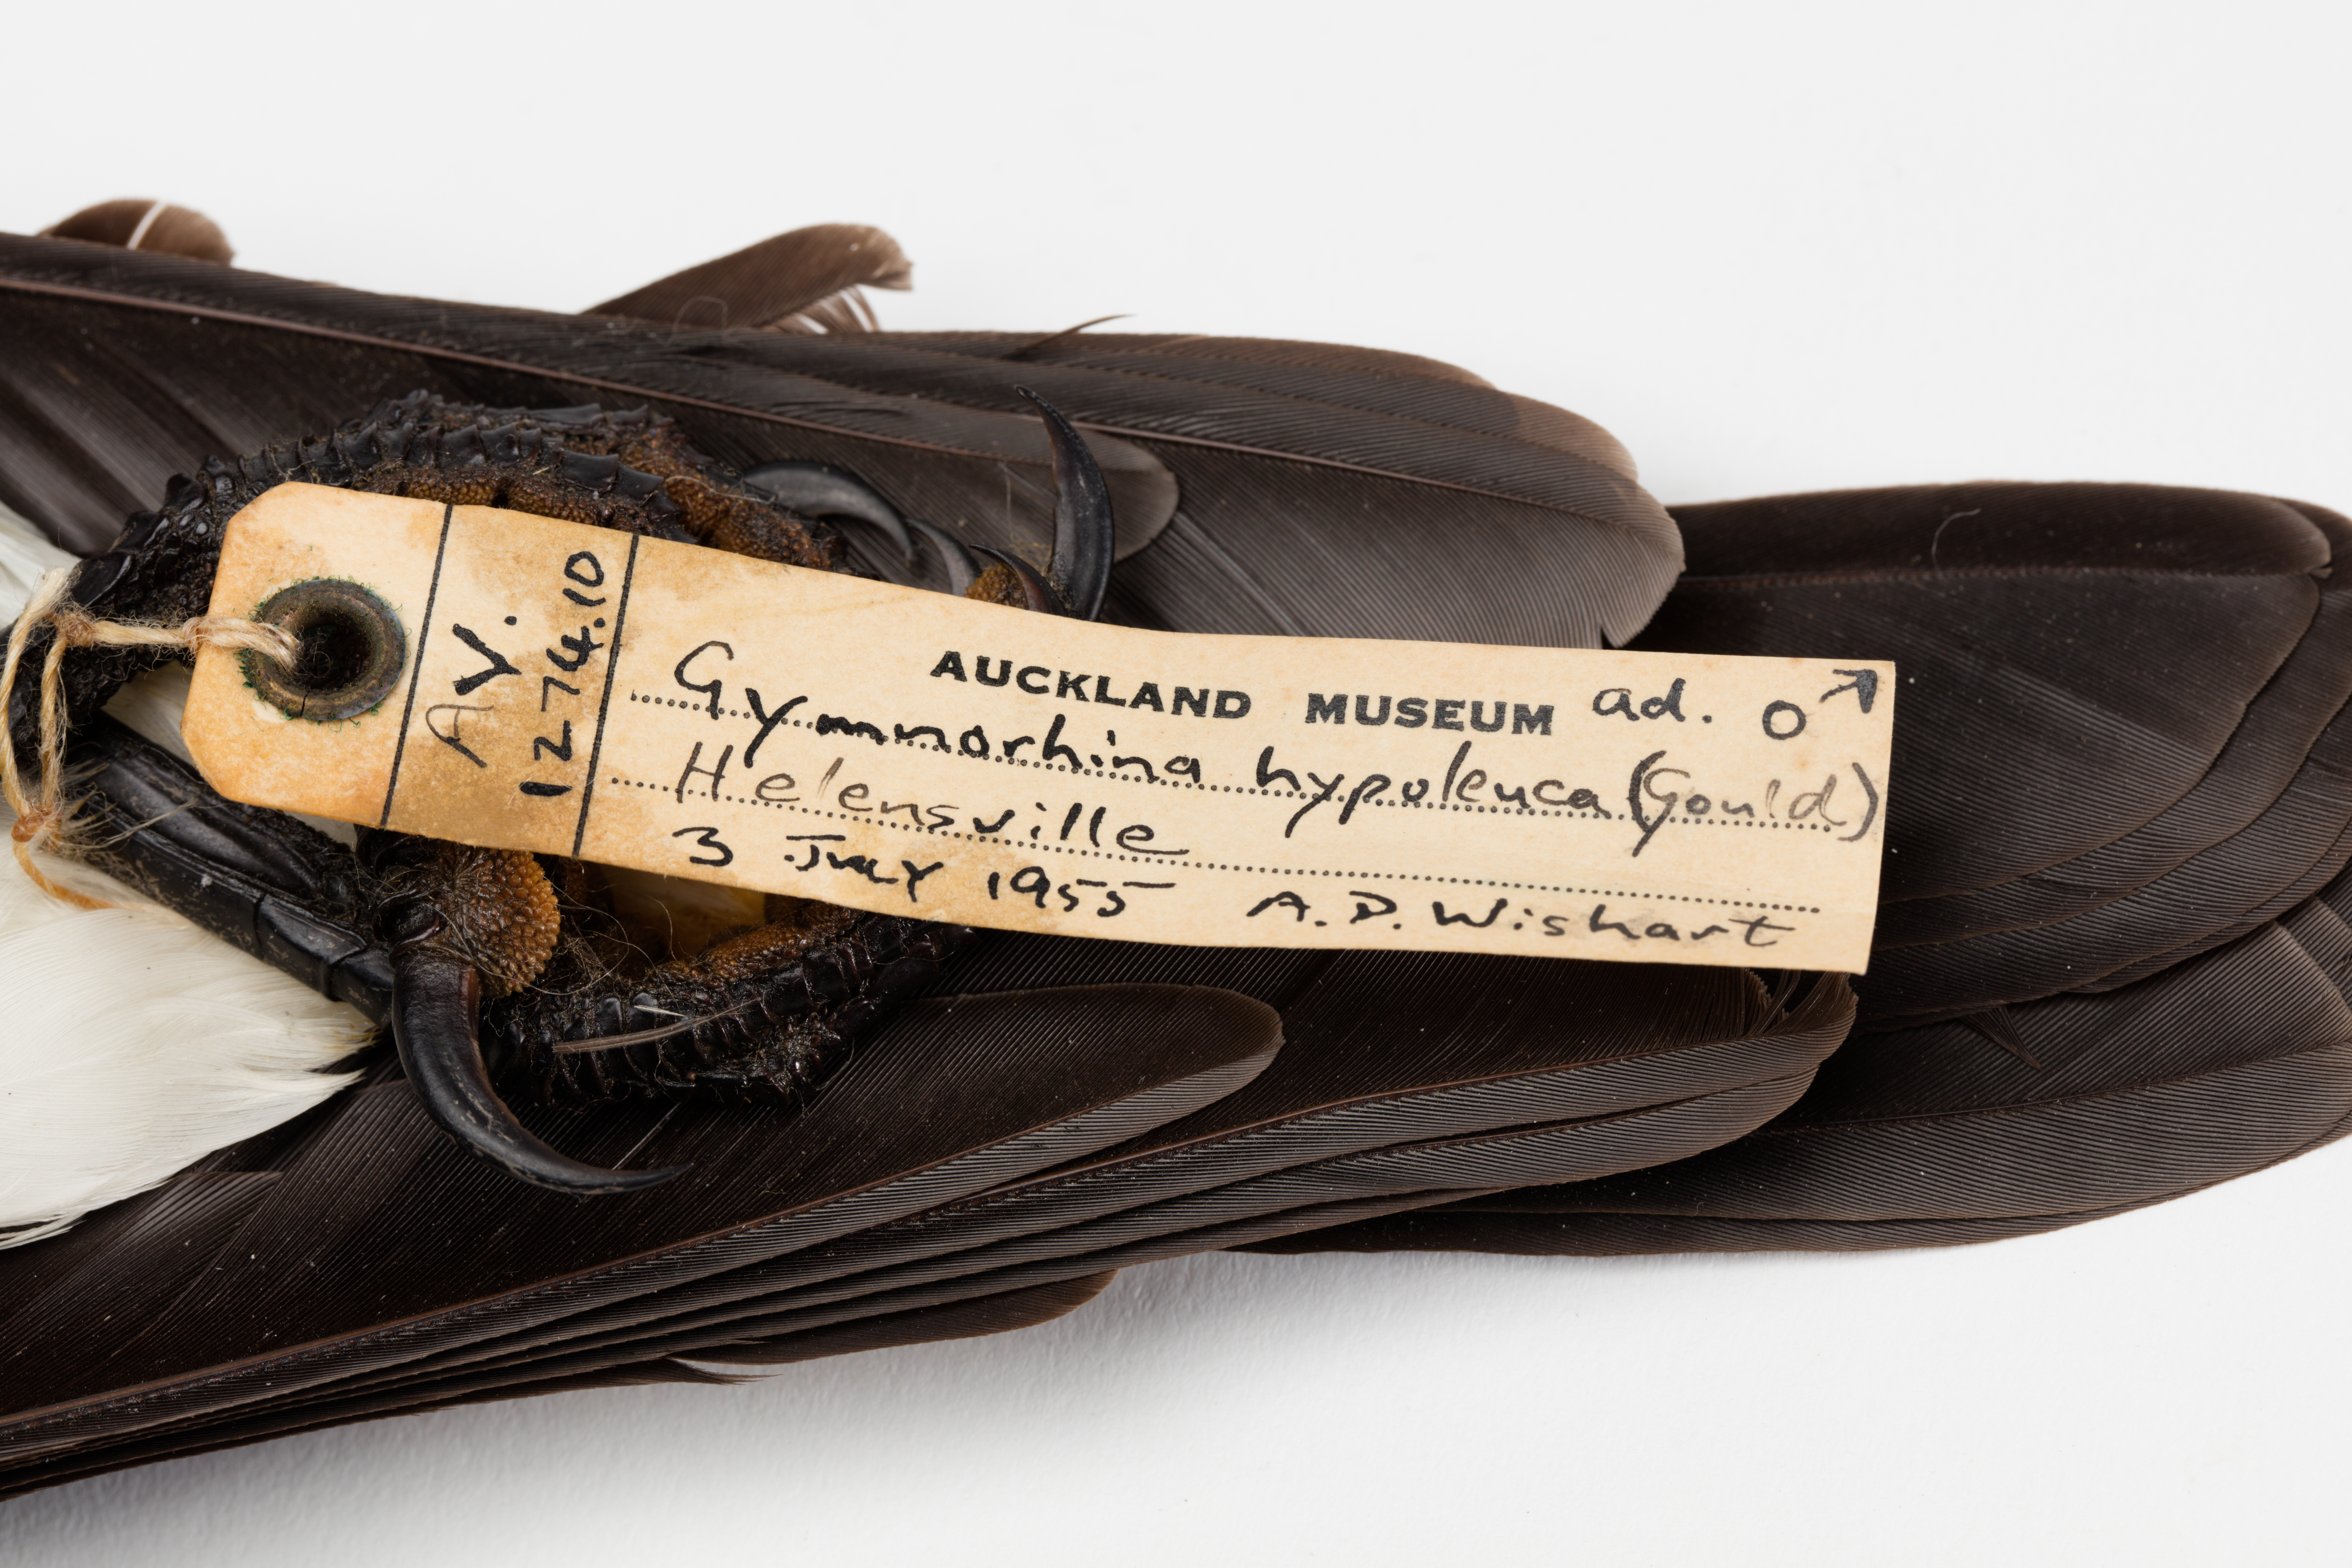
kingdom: Animalia
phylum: Chordata
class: Aves
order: Passeriformes
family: Cracticidae
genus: Gymnorhina
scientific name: Gymnorhina tibicen
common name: Australian magpie
